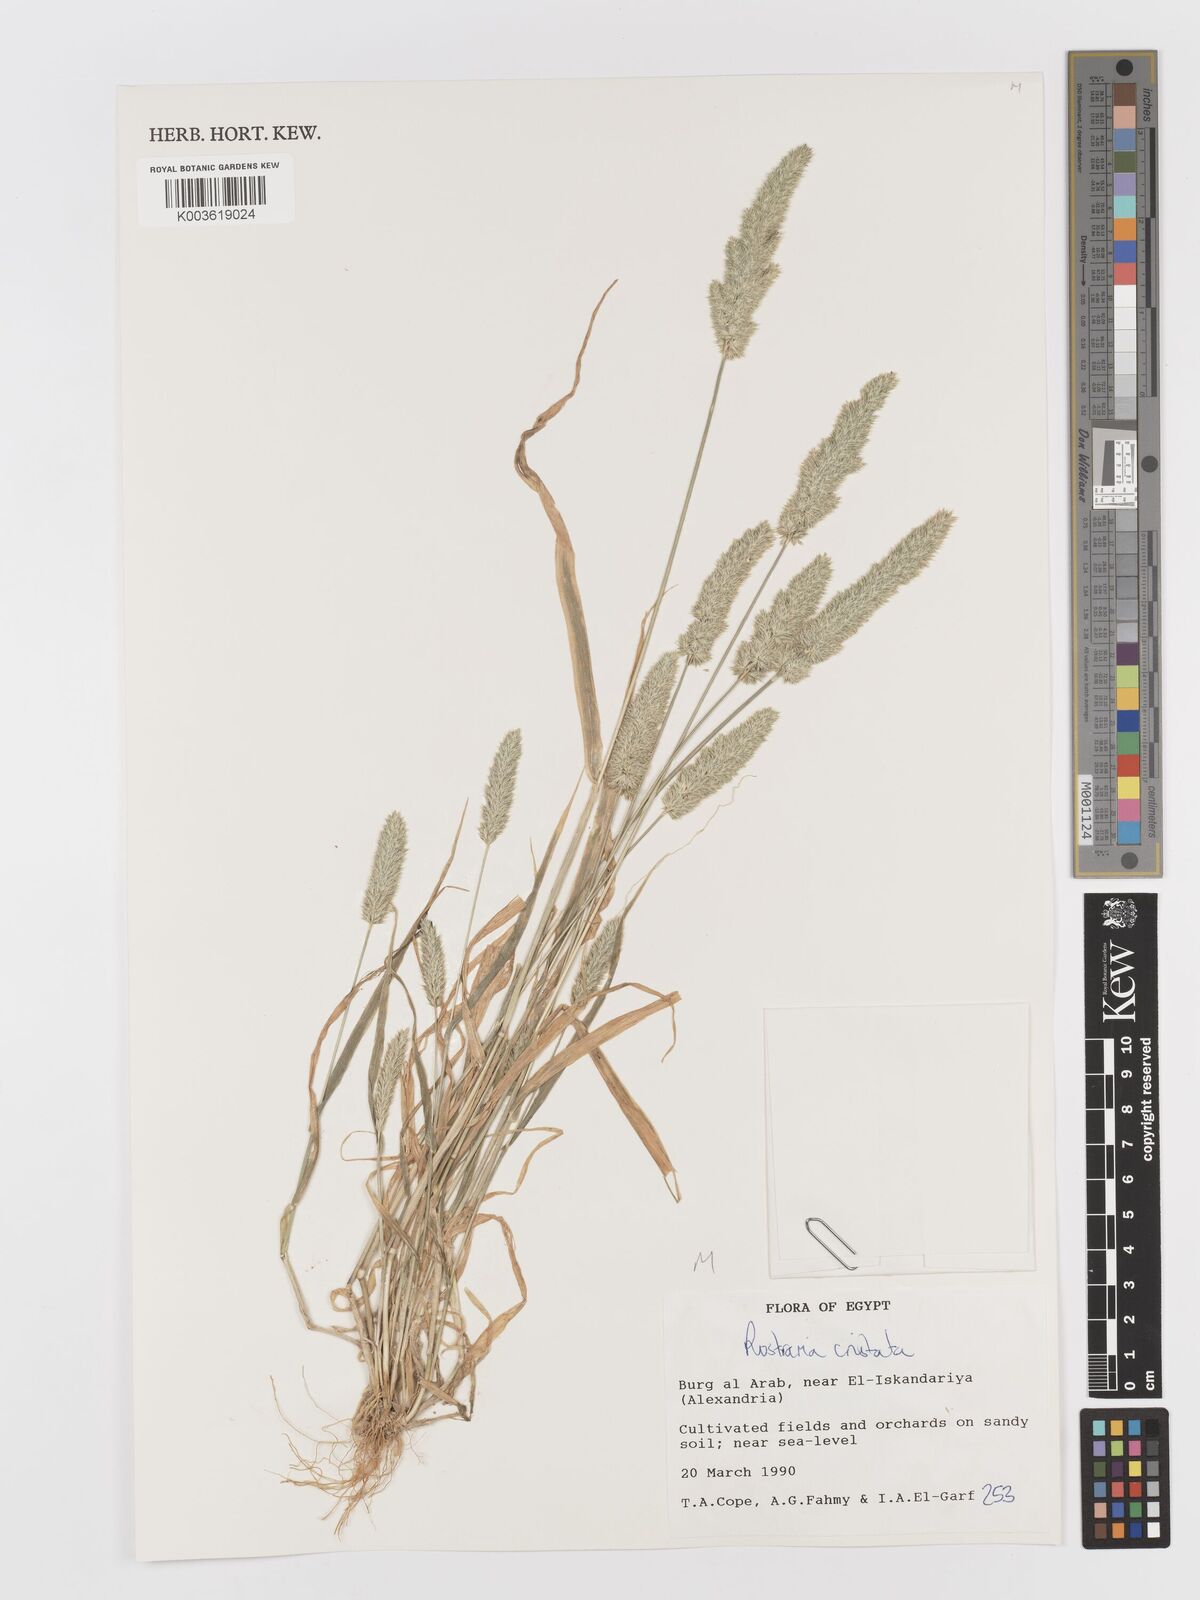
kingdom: Plantae
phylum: Tracheophyta
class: Liliopsida
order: Poales
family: Poaceae
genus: Rostraria
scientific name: Rostraria cristata
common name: Mediterranean hair-grass
